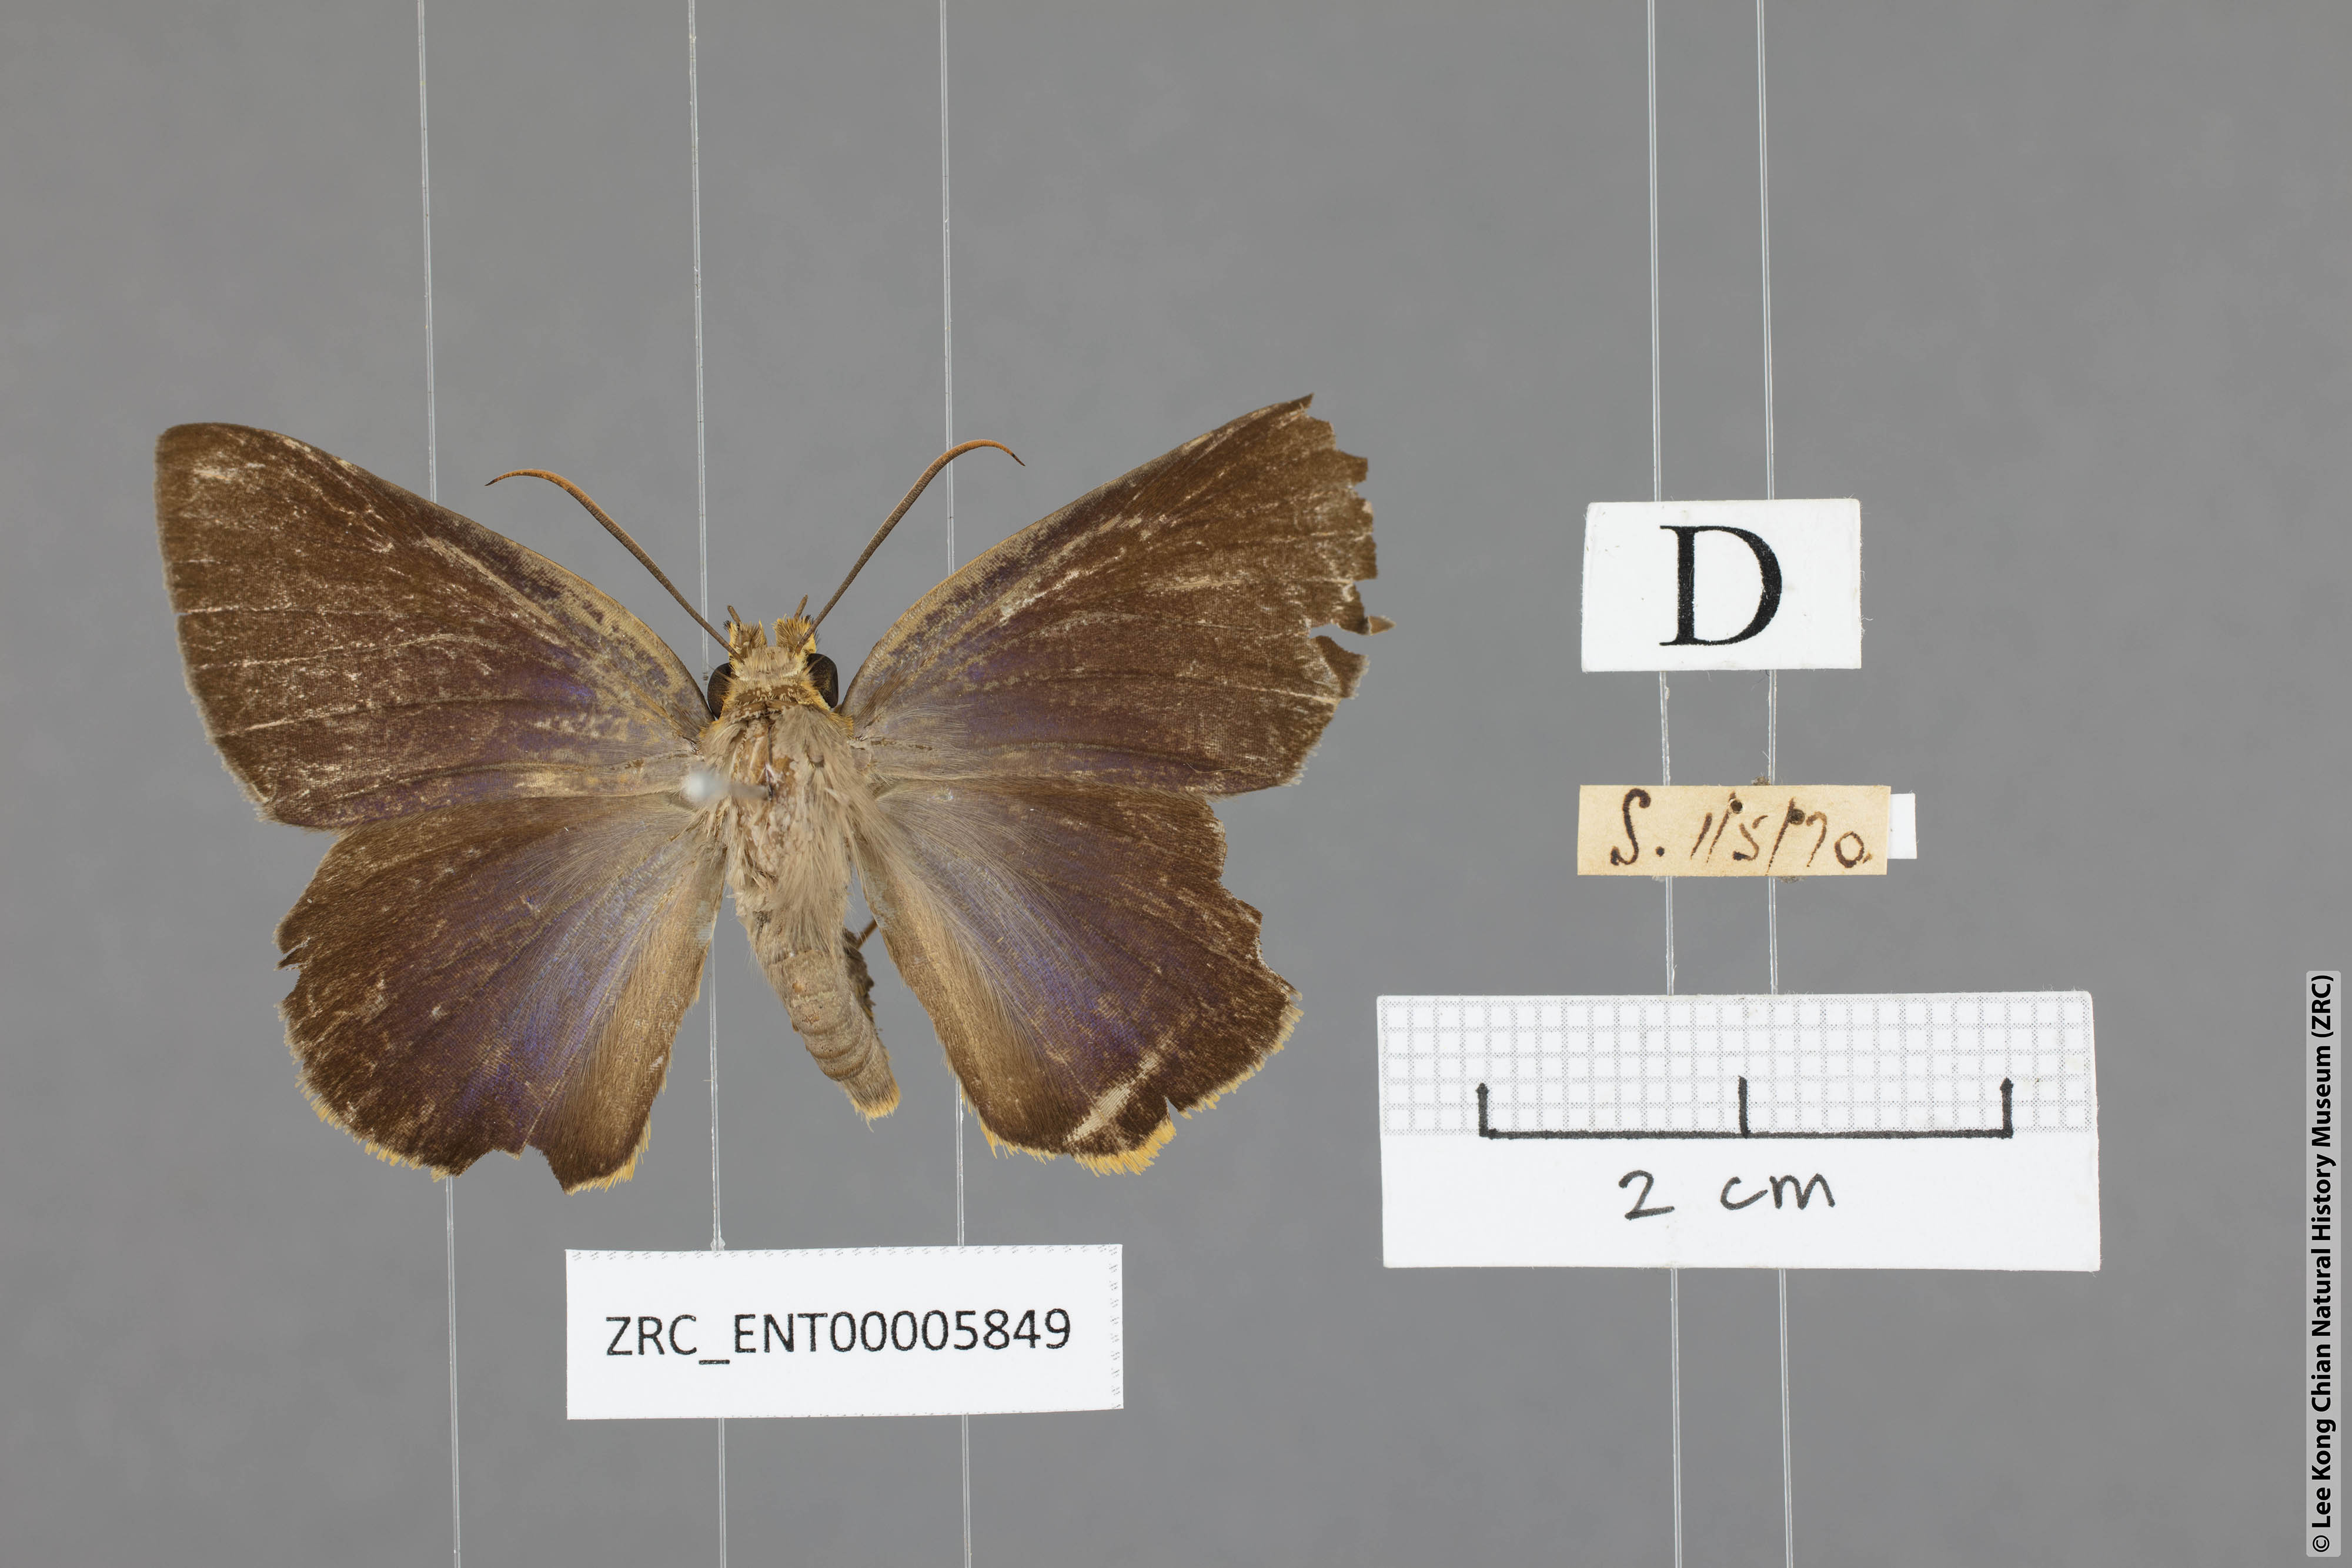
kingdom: Animalia
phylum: Arthropoda
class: Insecta
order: Lepidoptera
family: Hesperiidae
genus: Bibasis
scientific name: Bibasis Burara harisa
